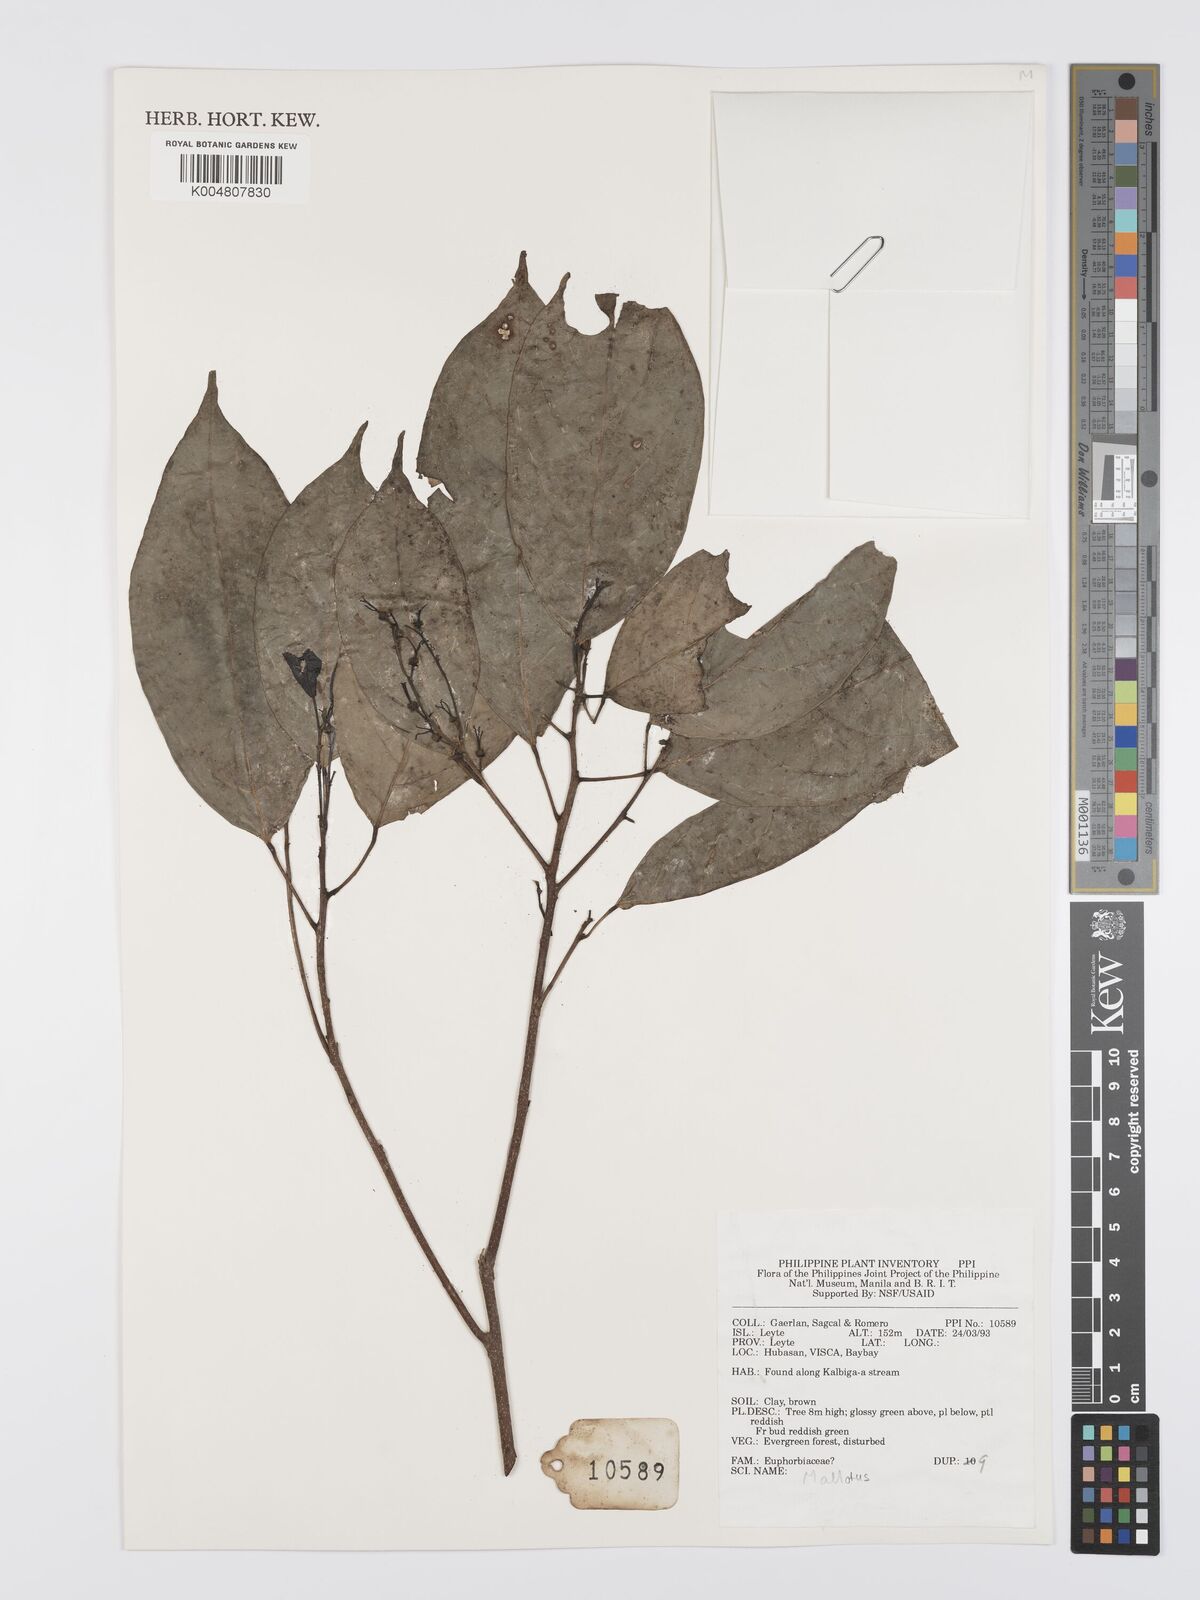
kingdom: Plantae
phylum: Tracheophyta
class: Magnoliopsida
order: Malpighiales
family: Euphorbiaceae
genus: Mallotus
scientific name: Mallotus
